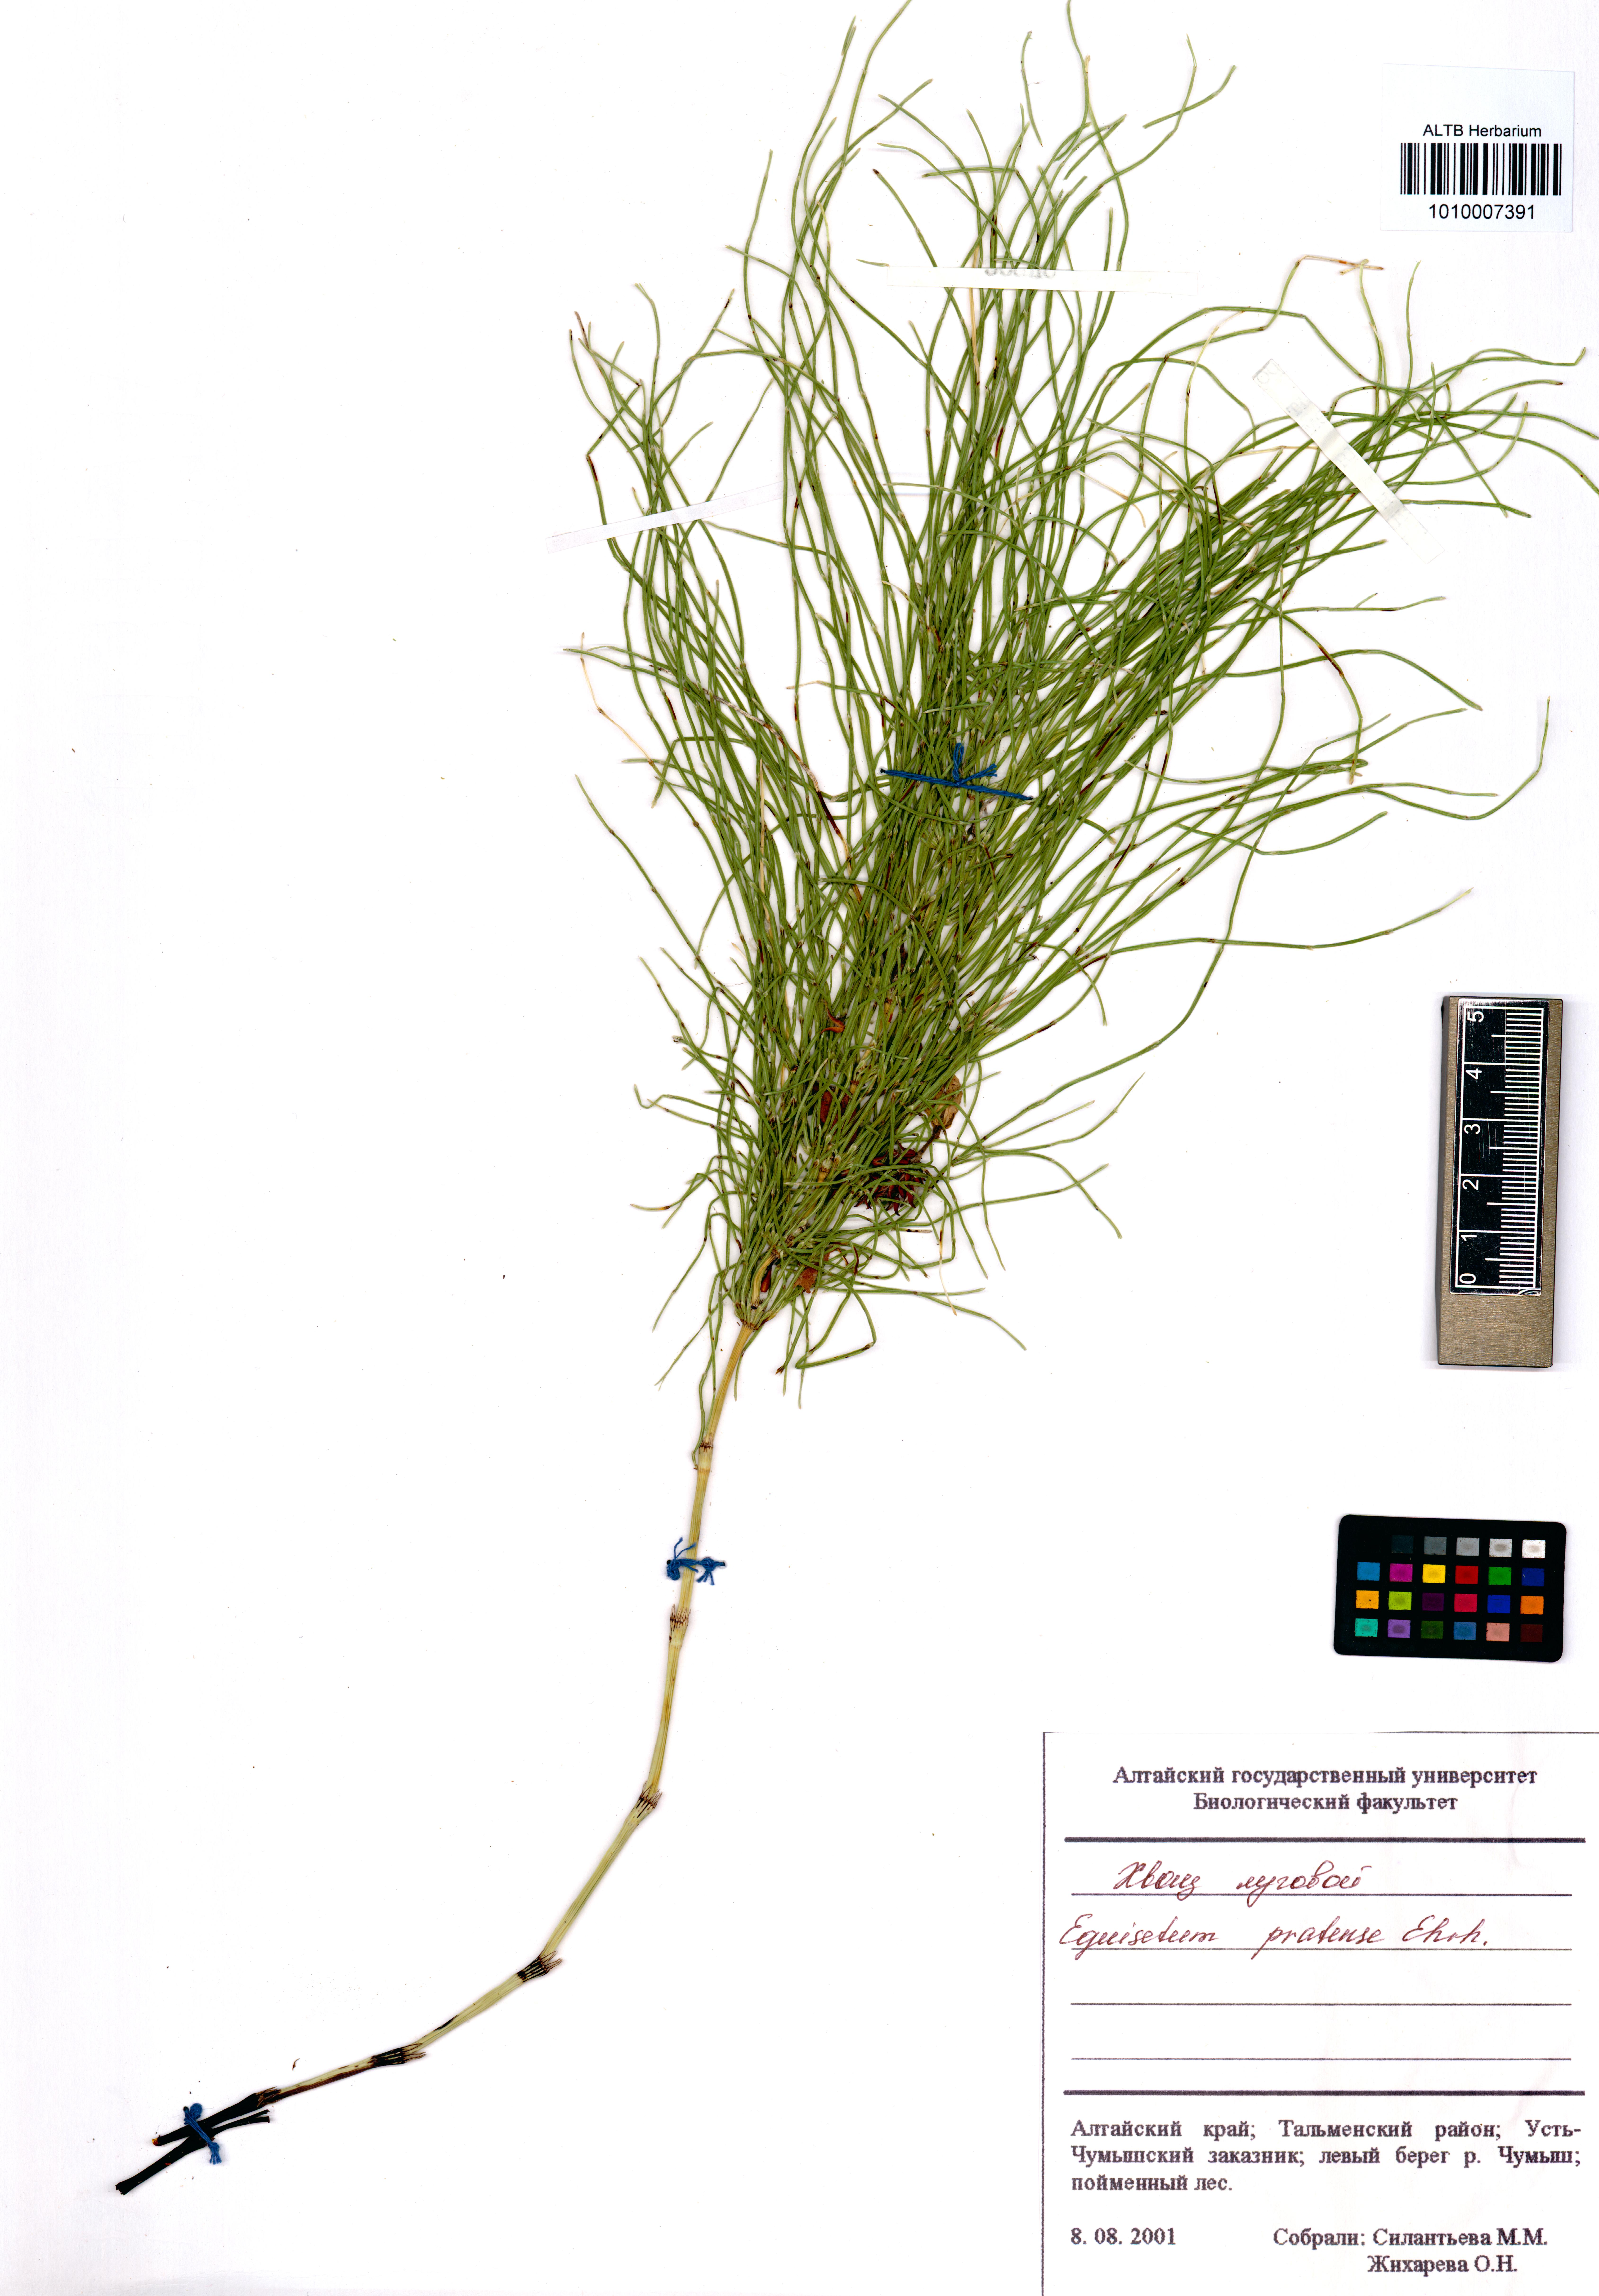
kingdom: Plantae
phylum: Tracheophyta
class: Polypodiopsida
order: Equisetales
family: Equisetaceae
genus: Equisetum
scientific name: Equisetum pratense
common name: Meadow horsetail
